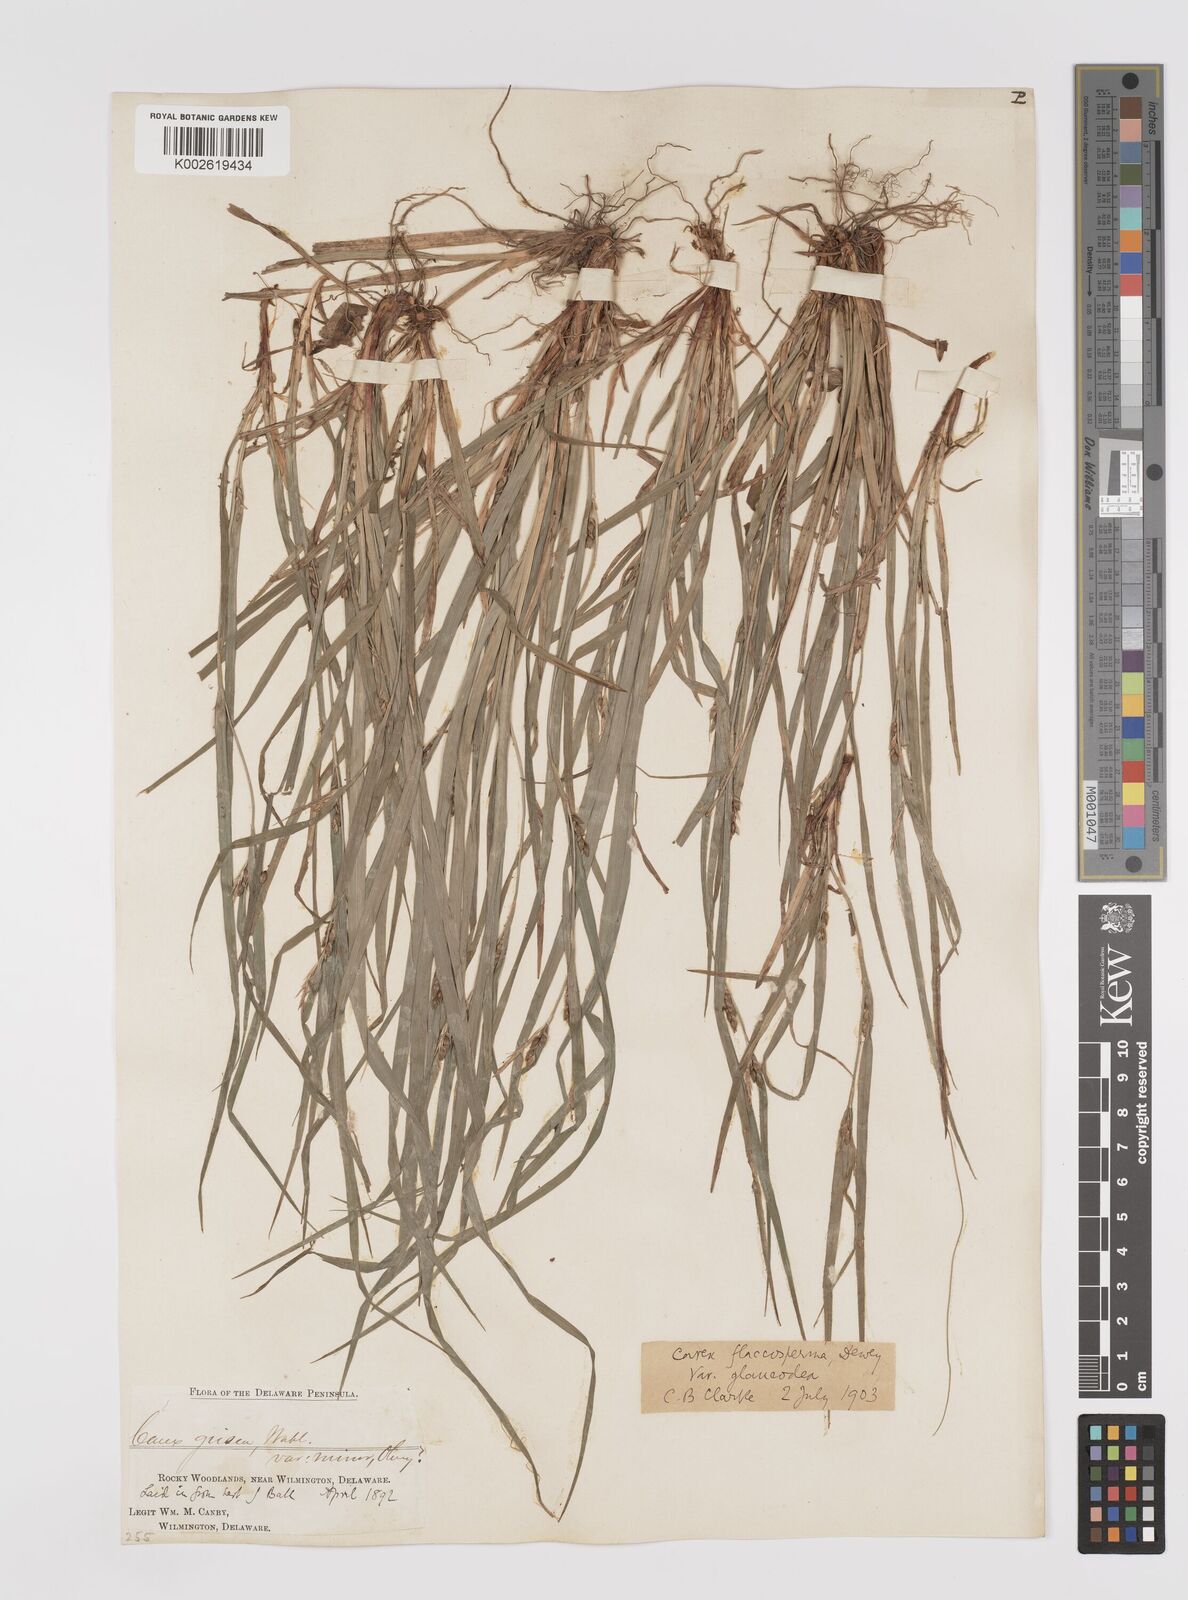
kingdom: Plantae
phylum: Tracheophyta
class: Liliopsida
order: Poales
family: Cyperaceae
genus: Carex
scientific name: Carex glaucodea
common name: Blue sedge
